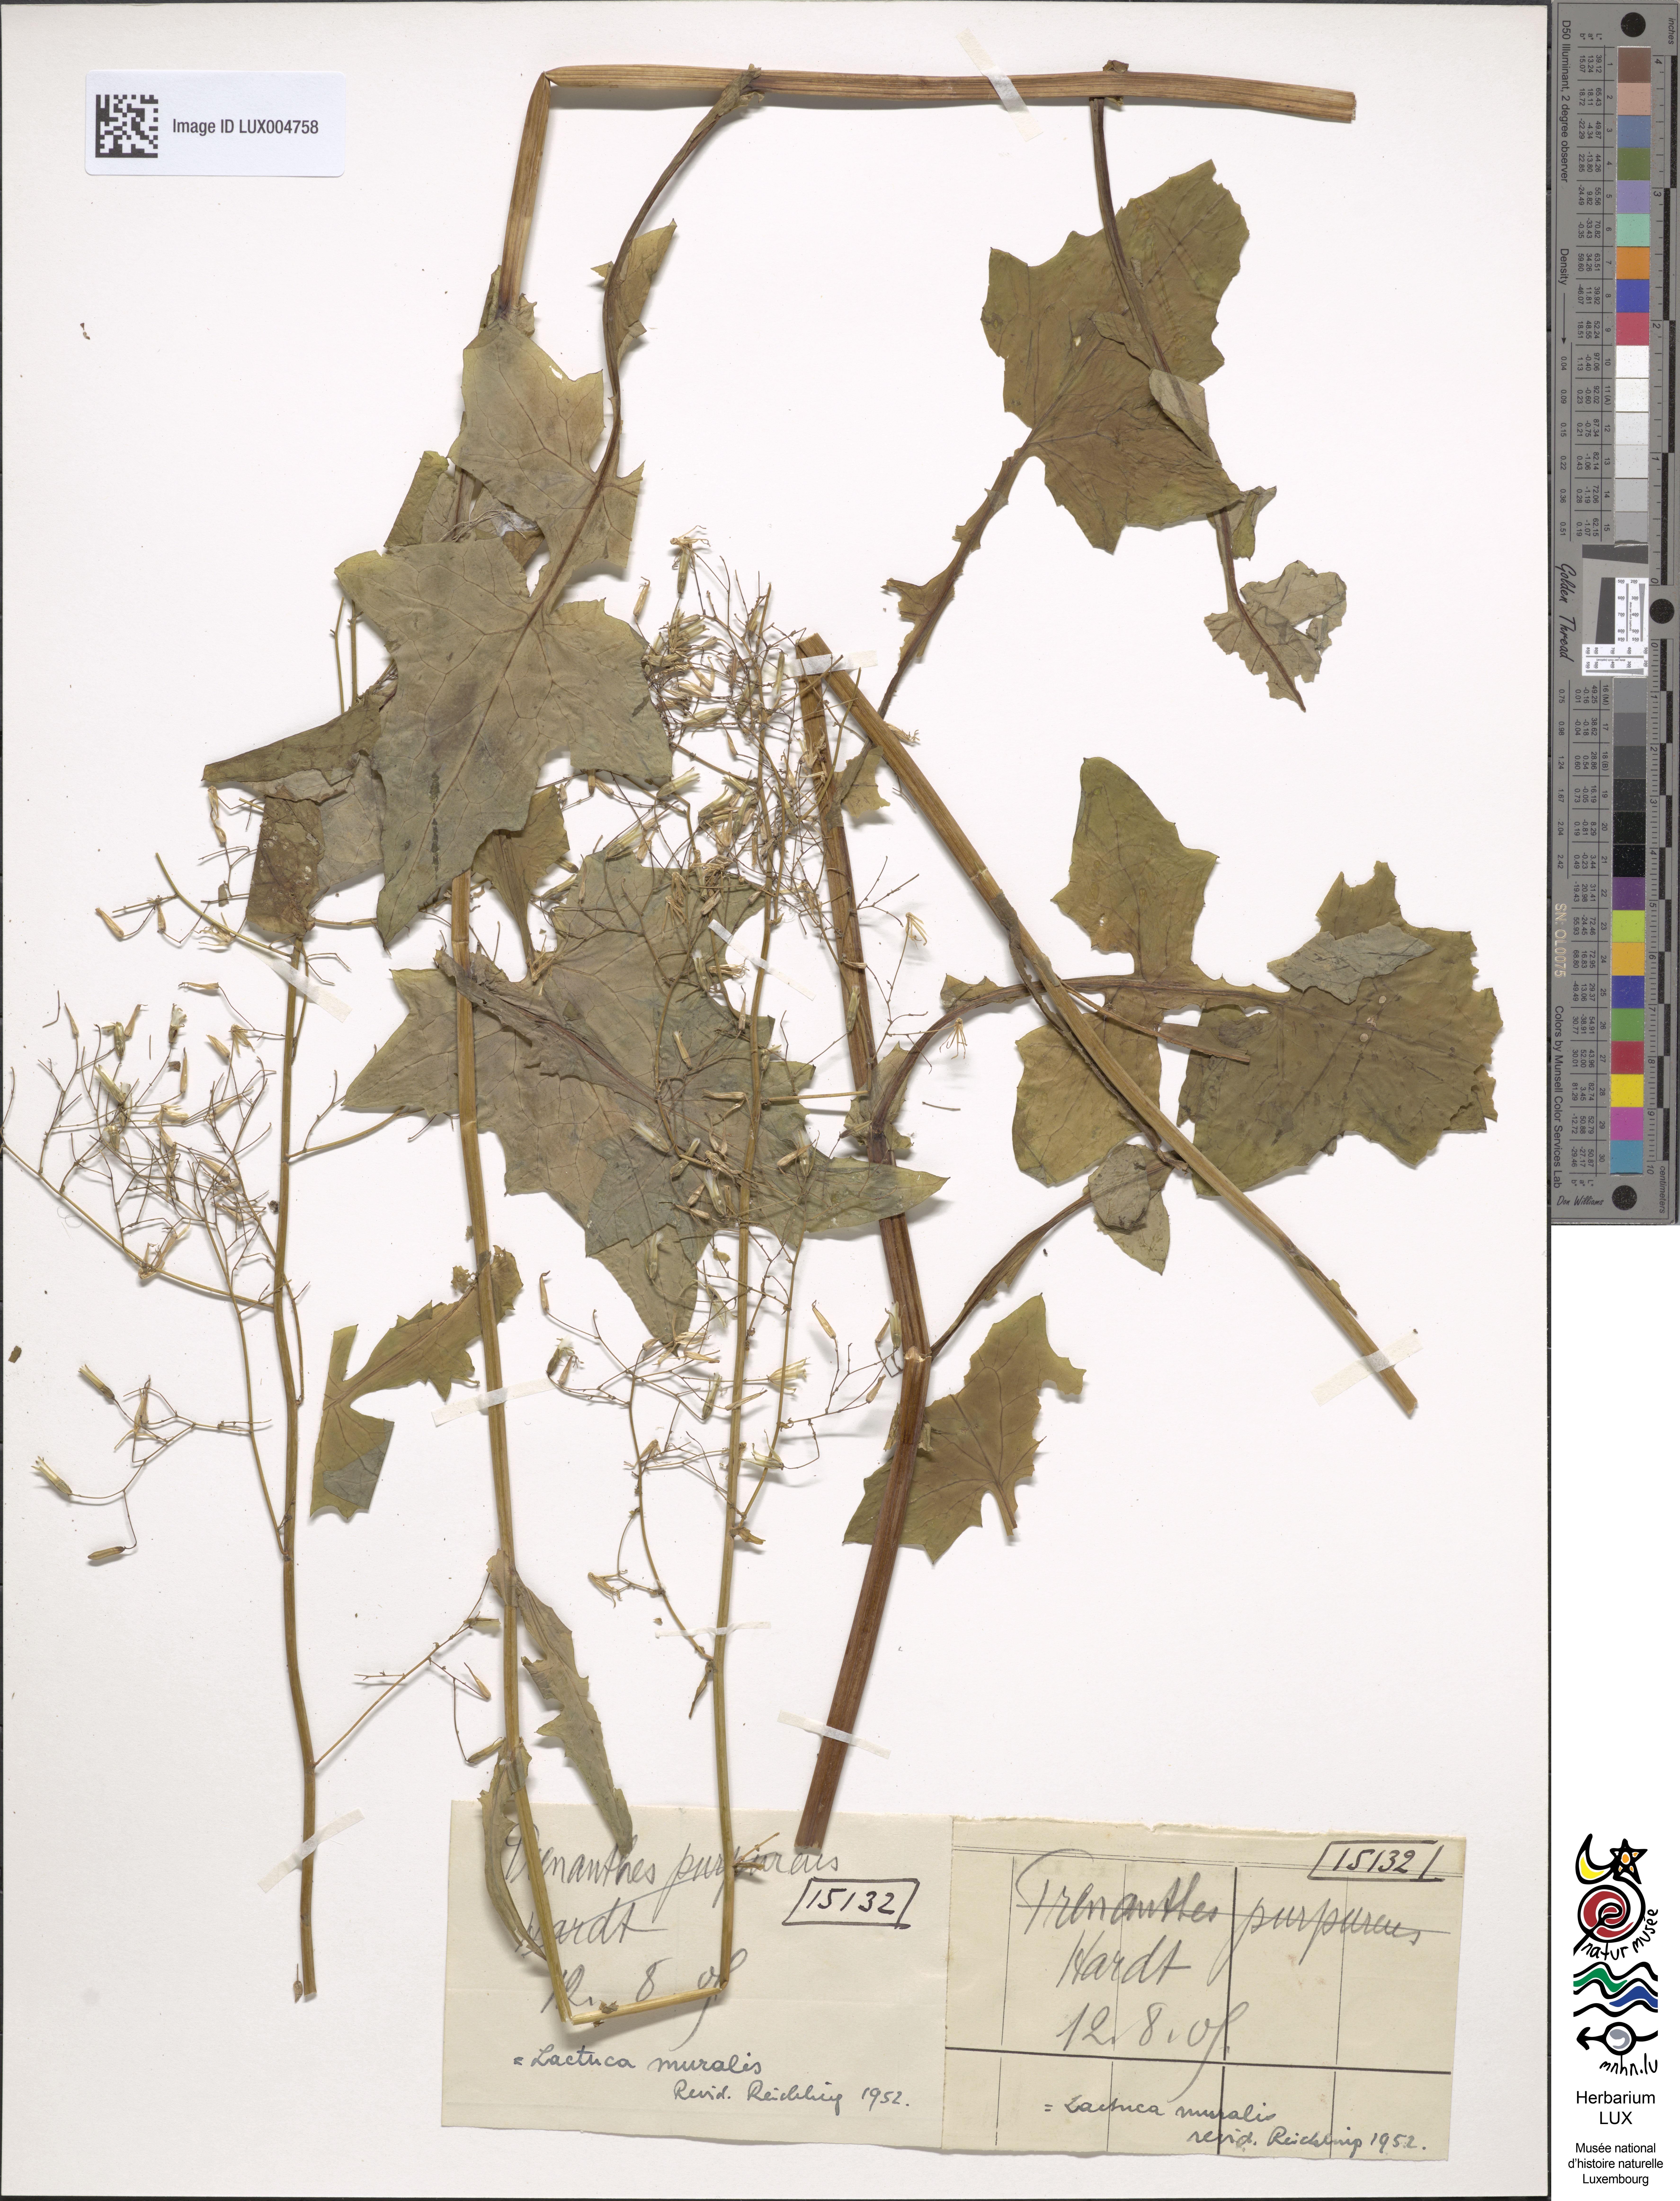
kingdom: Plantae
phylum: Tracheophyta
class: Magnoliopsida
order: Asterales
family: Asteraceae
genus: Prenanthes
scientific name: Prenanthes purpurea
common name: Purple lettuce
